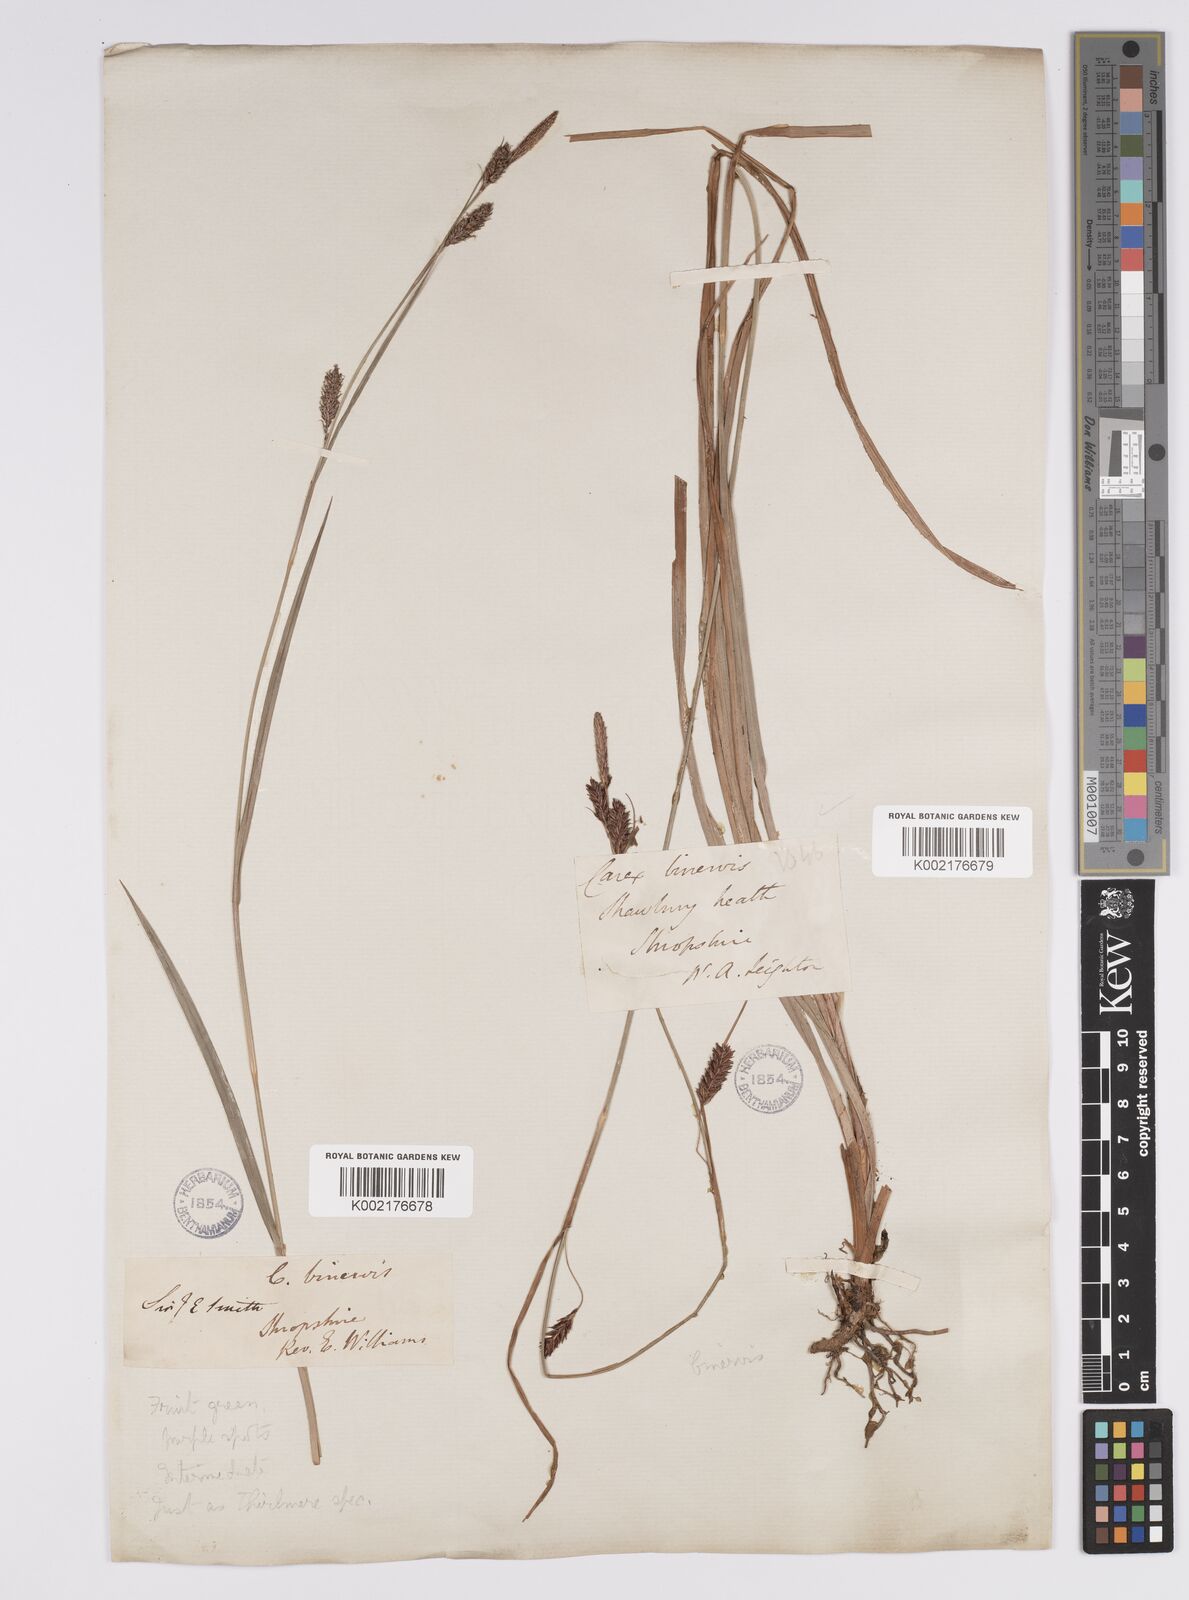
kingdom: Plantae
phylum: Tracheophyta
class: Liliopsida
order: Poales
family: Cyperaceae
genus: Carex
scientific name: Carex binervis
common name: Green-ribbed sedge
